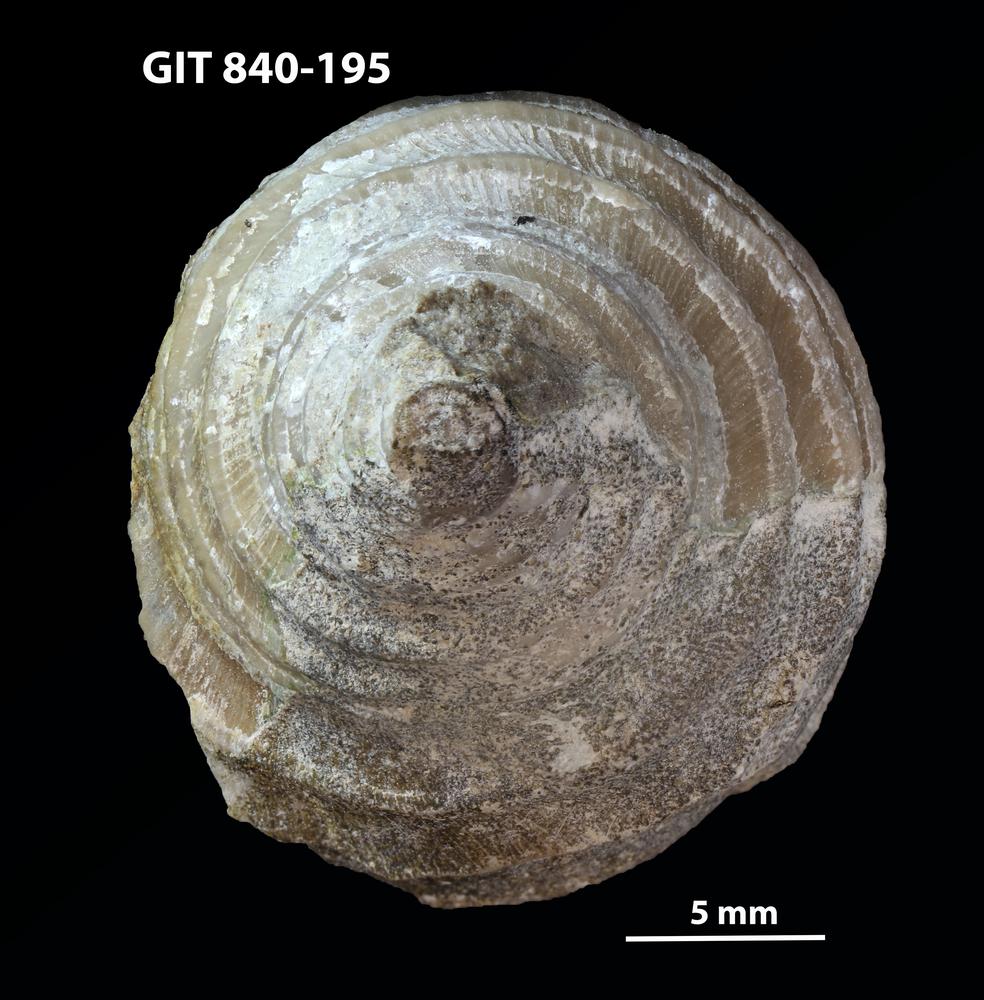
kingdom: Animalia
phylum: Mollusca
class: Gastropoda
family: Platyceratidae
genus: Cyclonema
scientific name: Cyclonema
